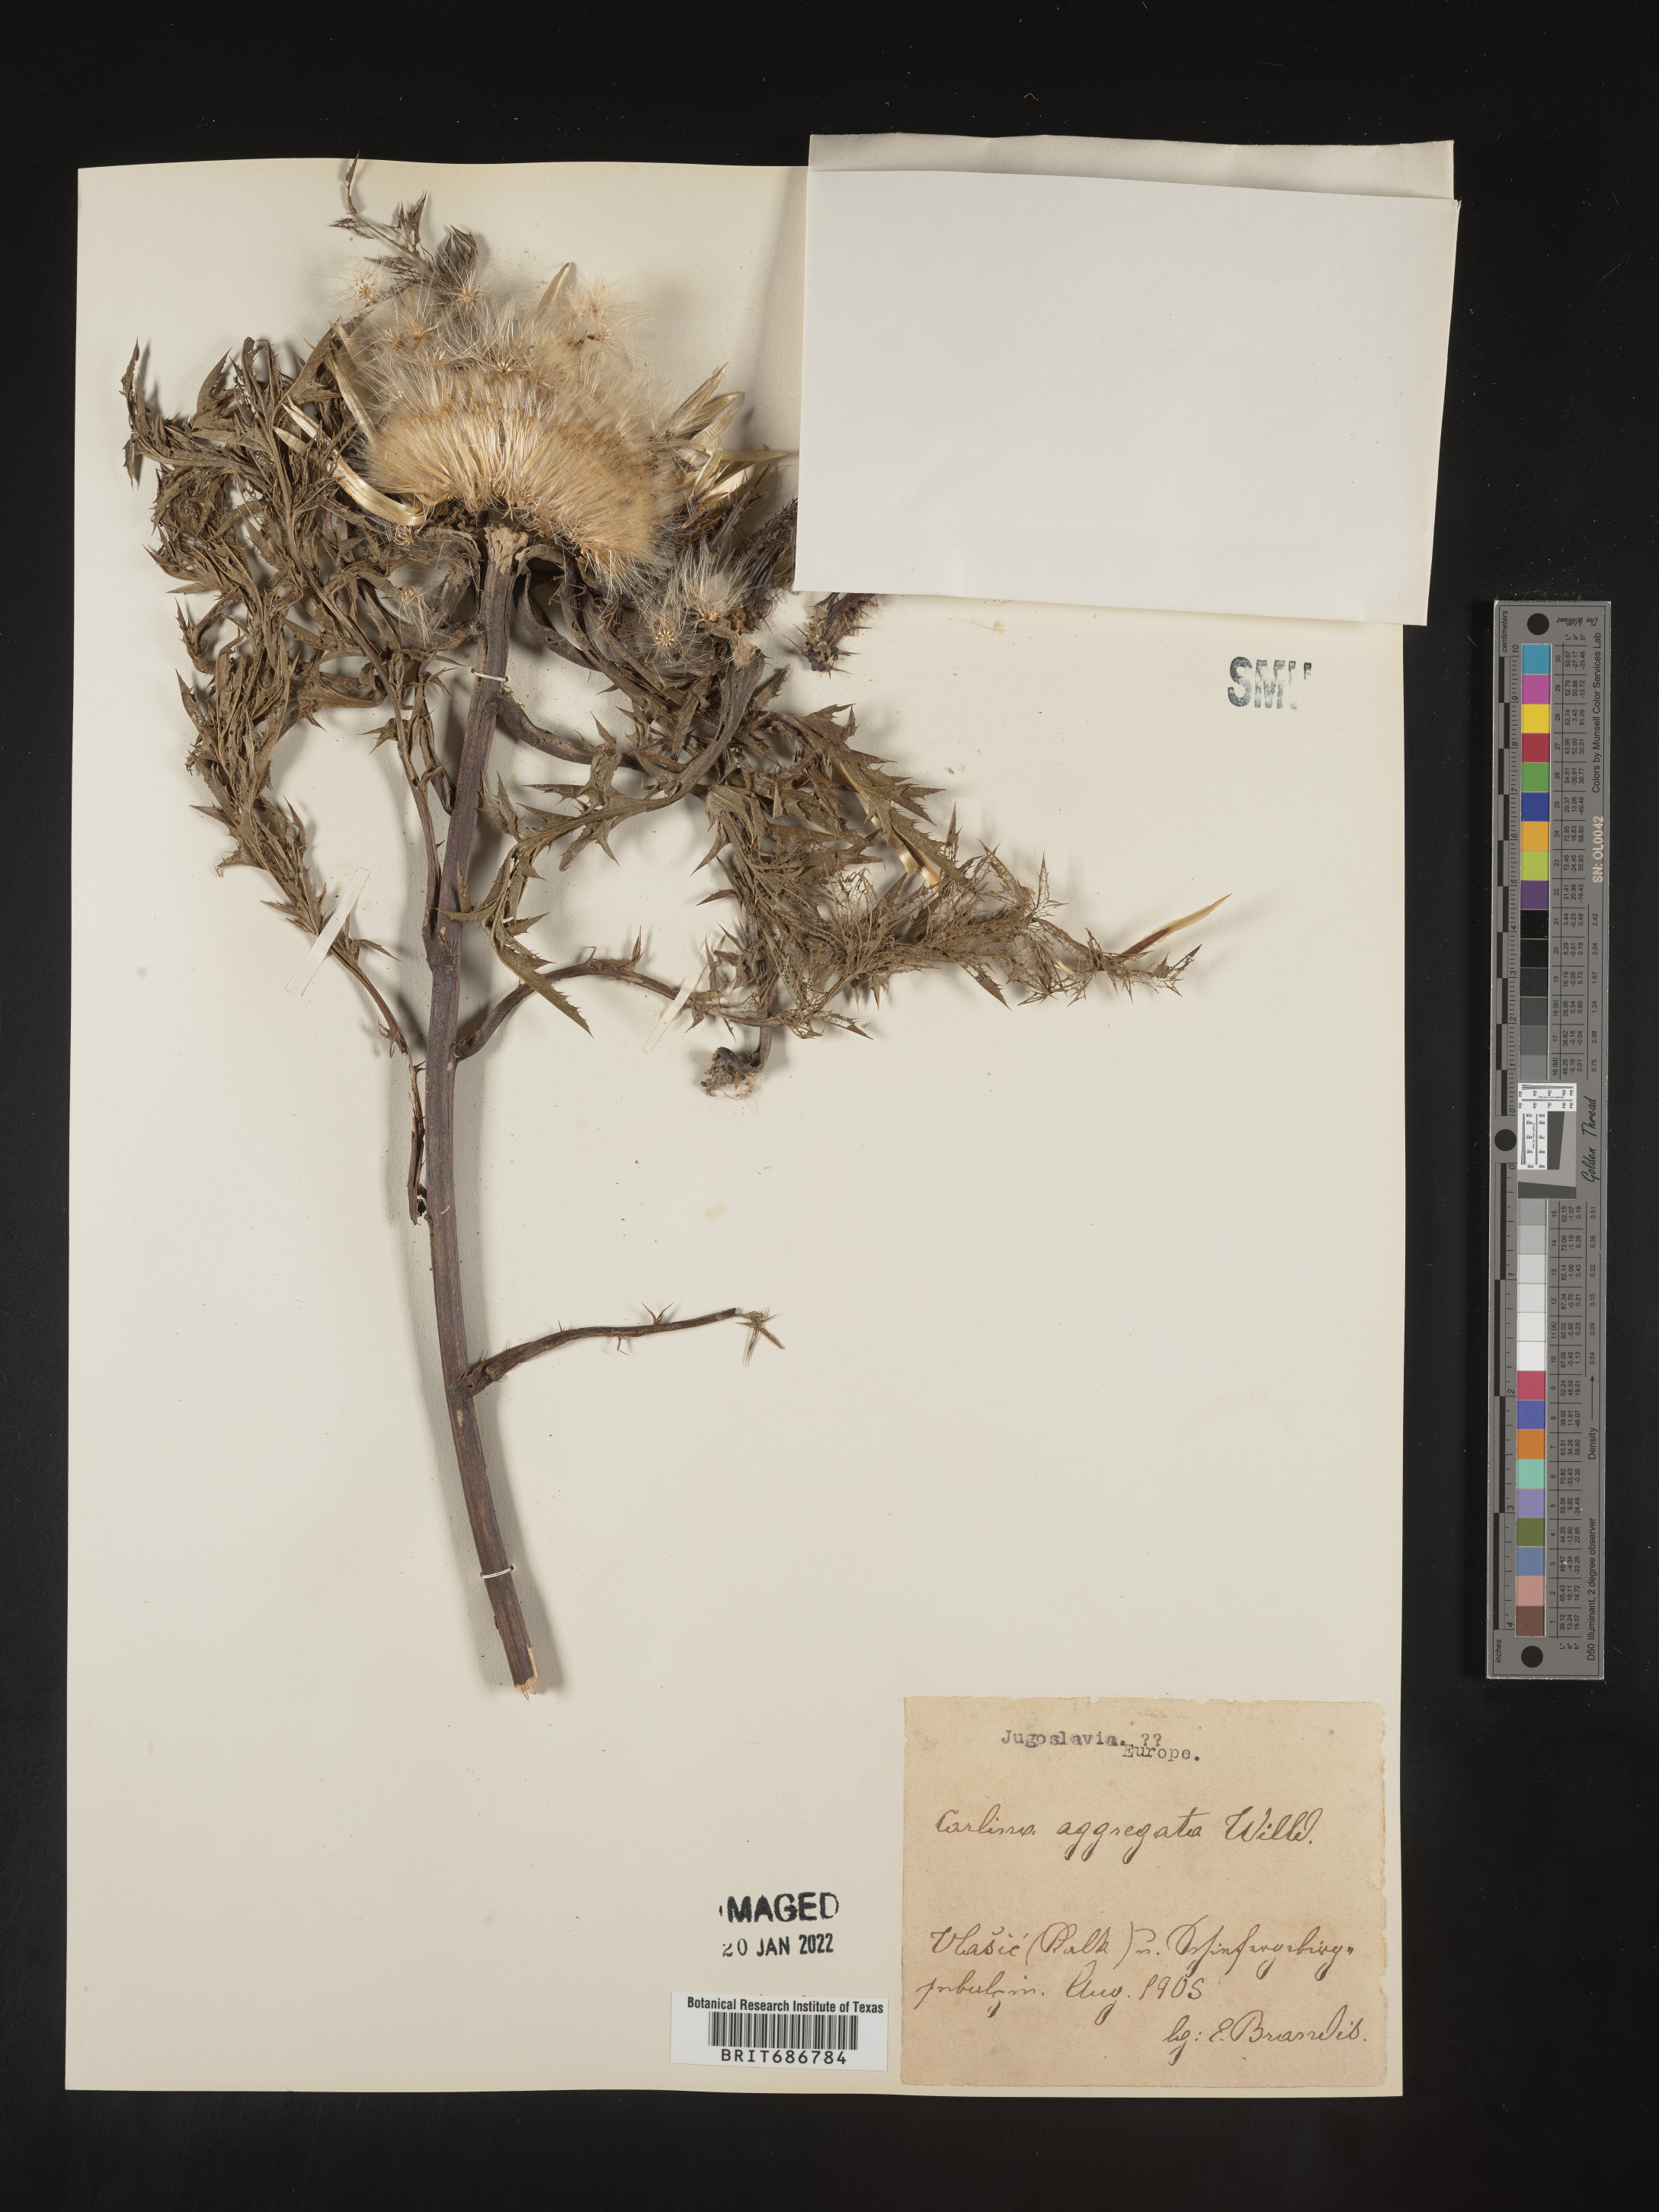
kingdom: Plantae
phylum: Tracheophyta
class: Magnoliopsida
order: Asterales
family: Asteraceae
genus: Carlina
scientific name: Carlina
